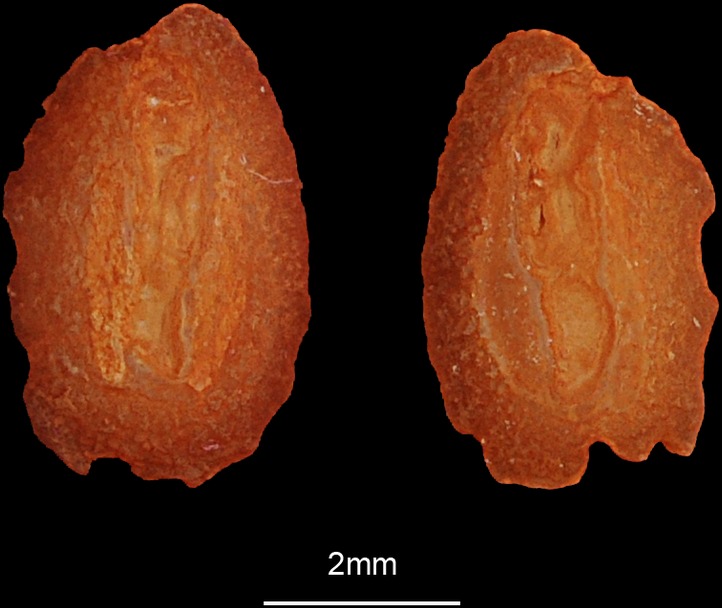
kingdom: Animalia
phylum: Chordata
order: Pleuronectiformes
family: Paralichthyidae
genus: Pseudorhombus
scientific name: Pseudorhombus elevatus
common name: Deep flounder
